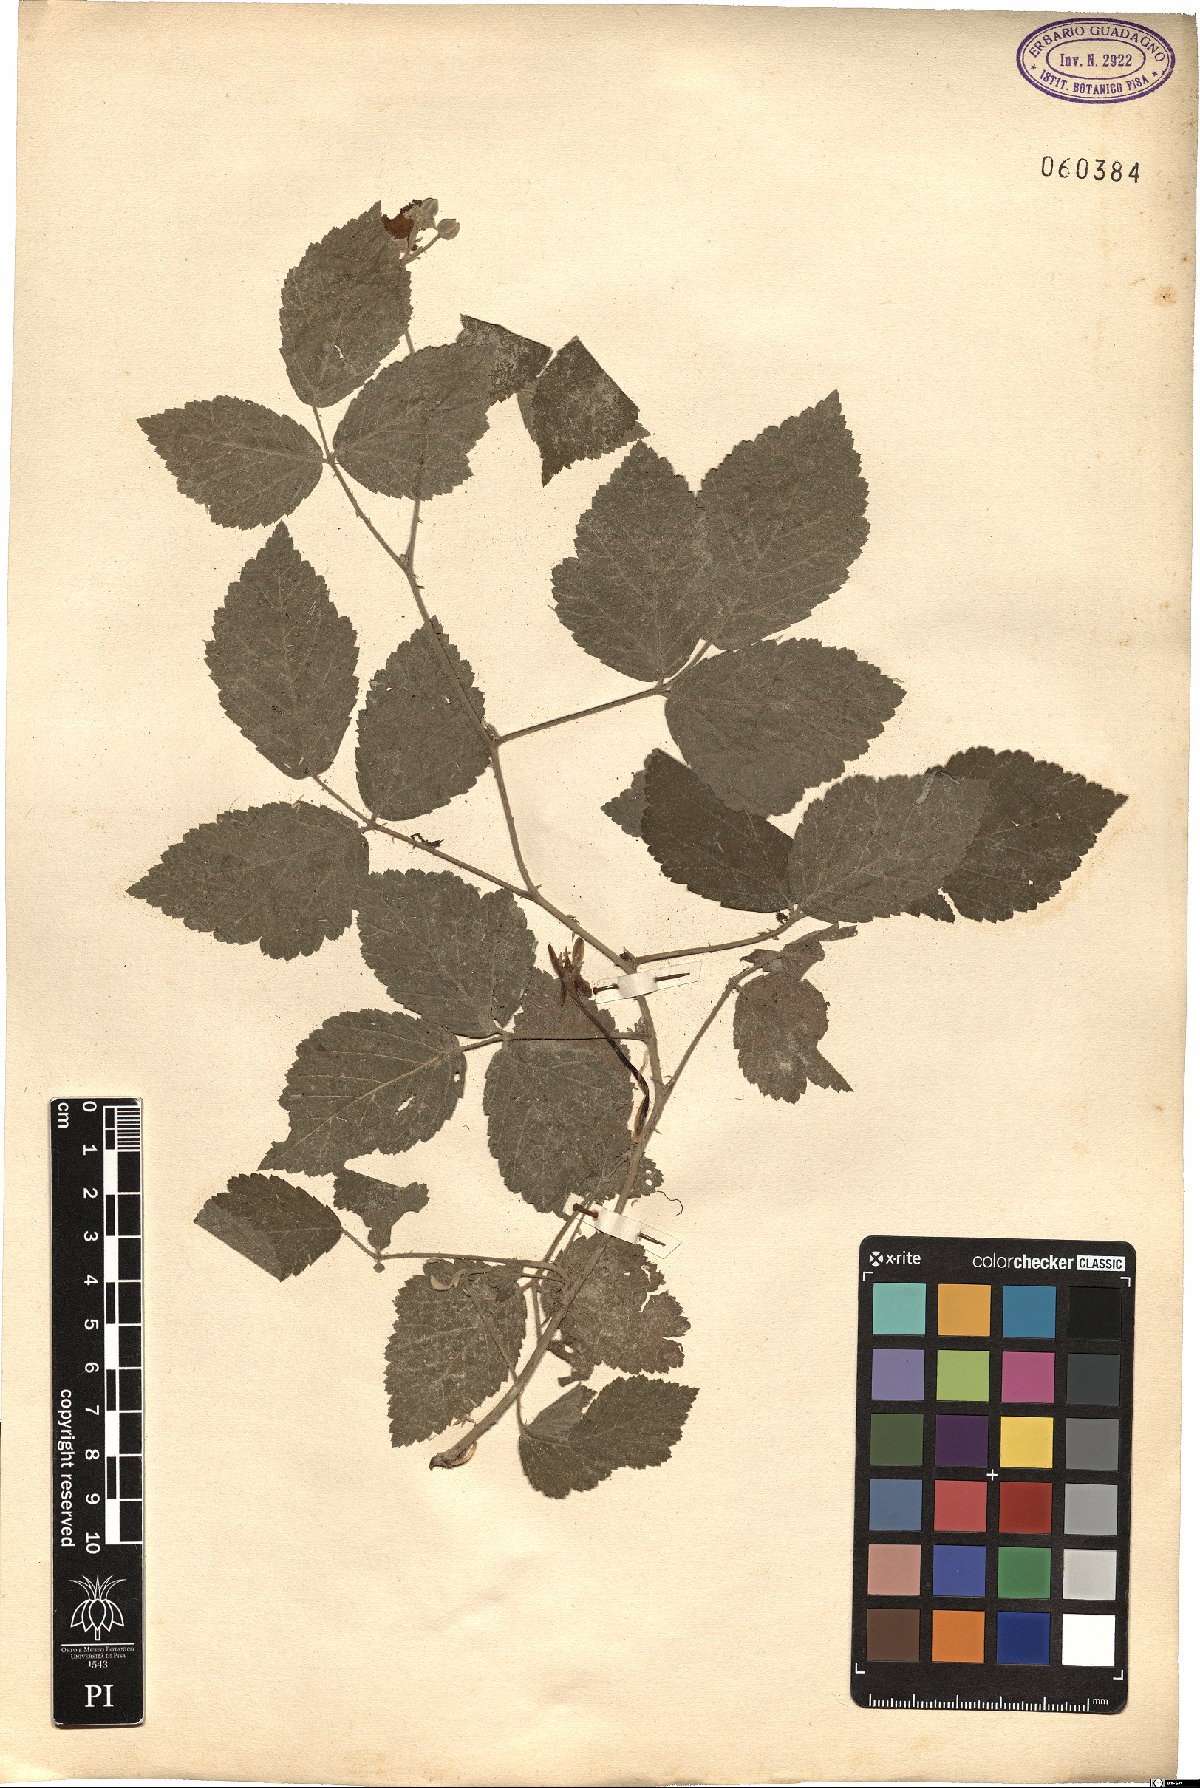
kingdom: Plantae
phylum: Tracheophyta
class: Magnoliopsida
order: Rosales
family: Rosaceae
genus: Rubus
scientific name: Rubus
